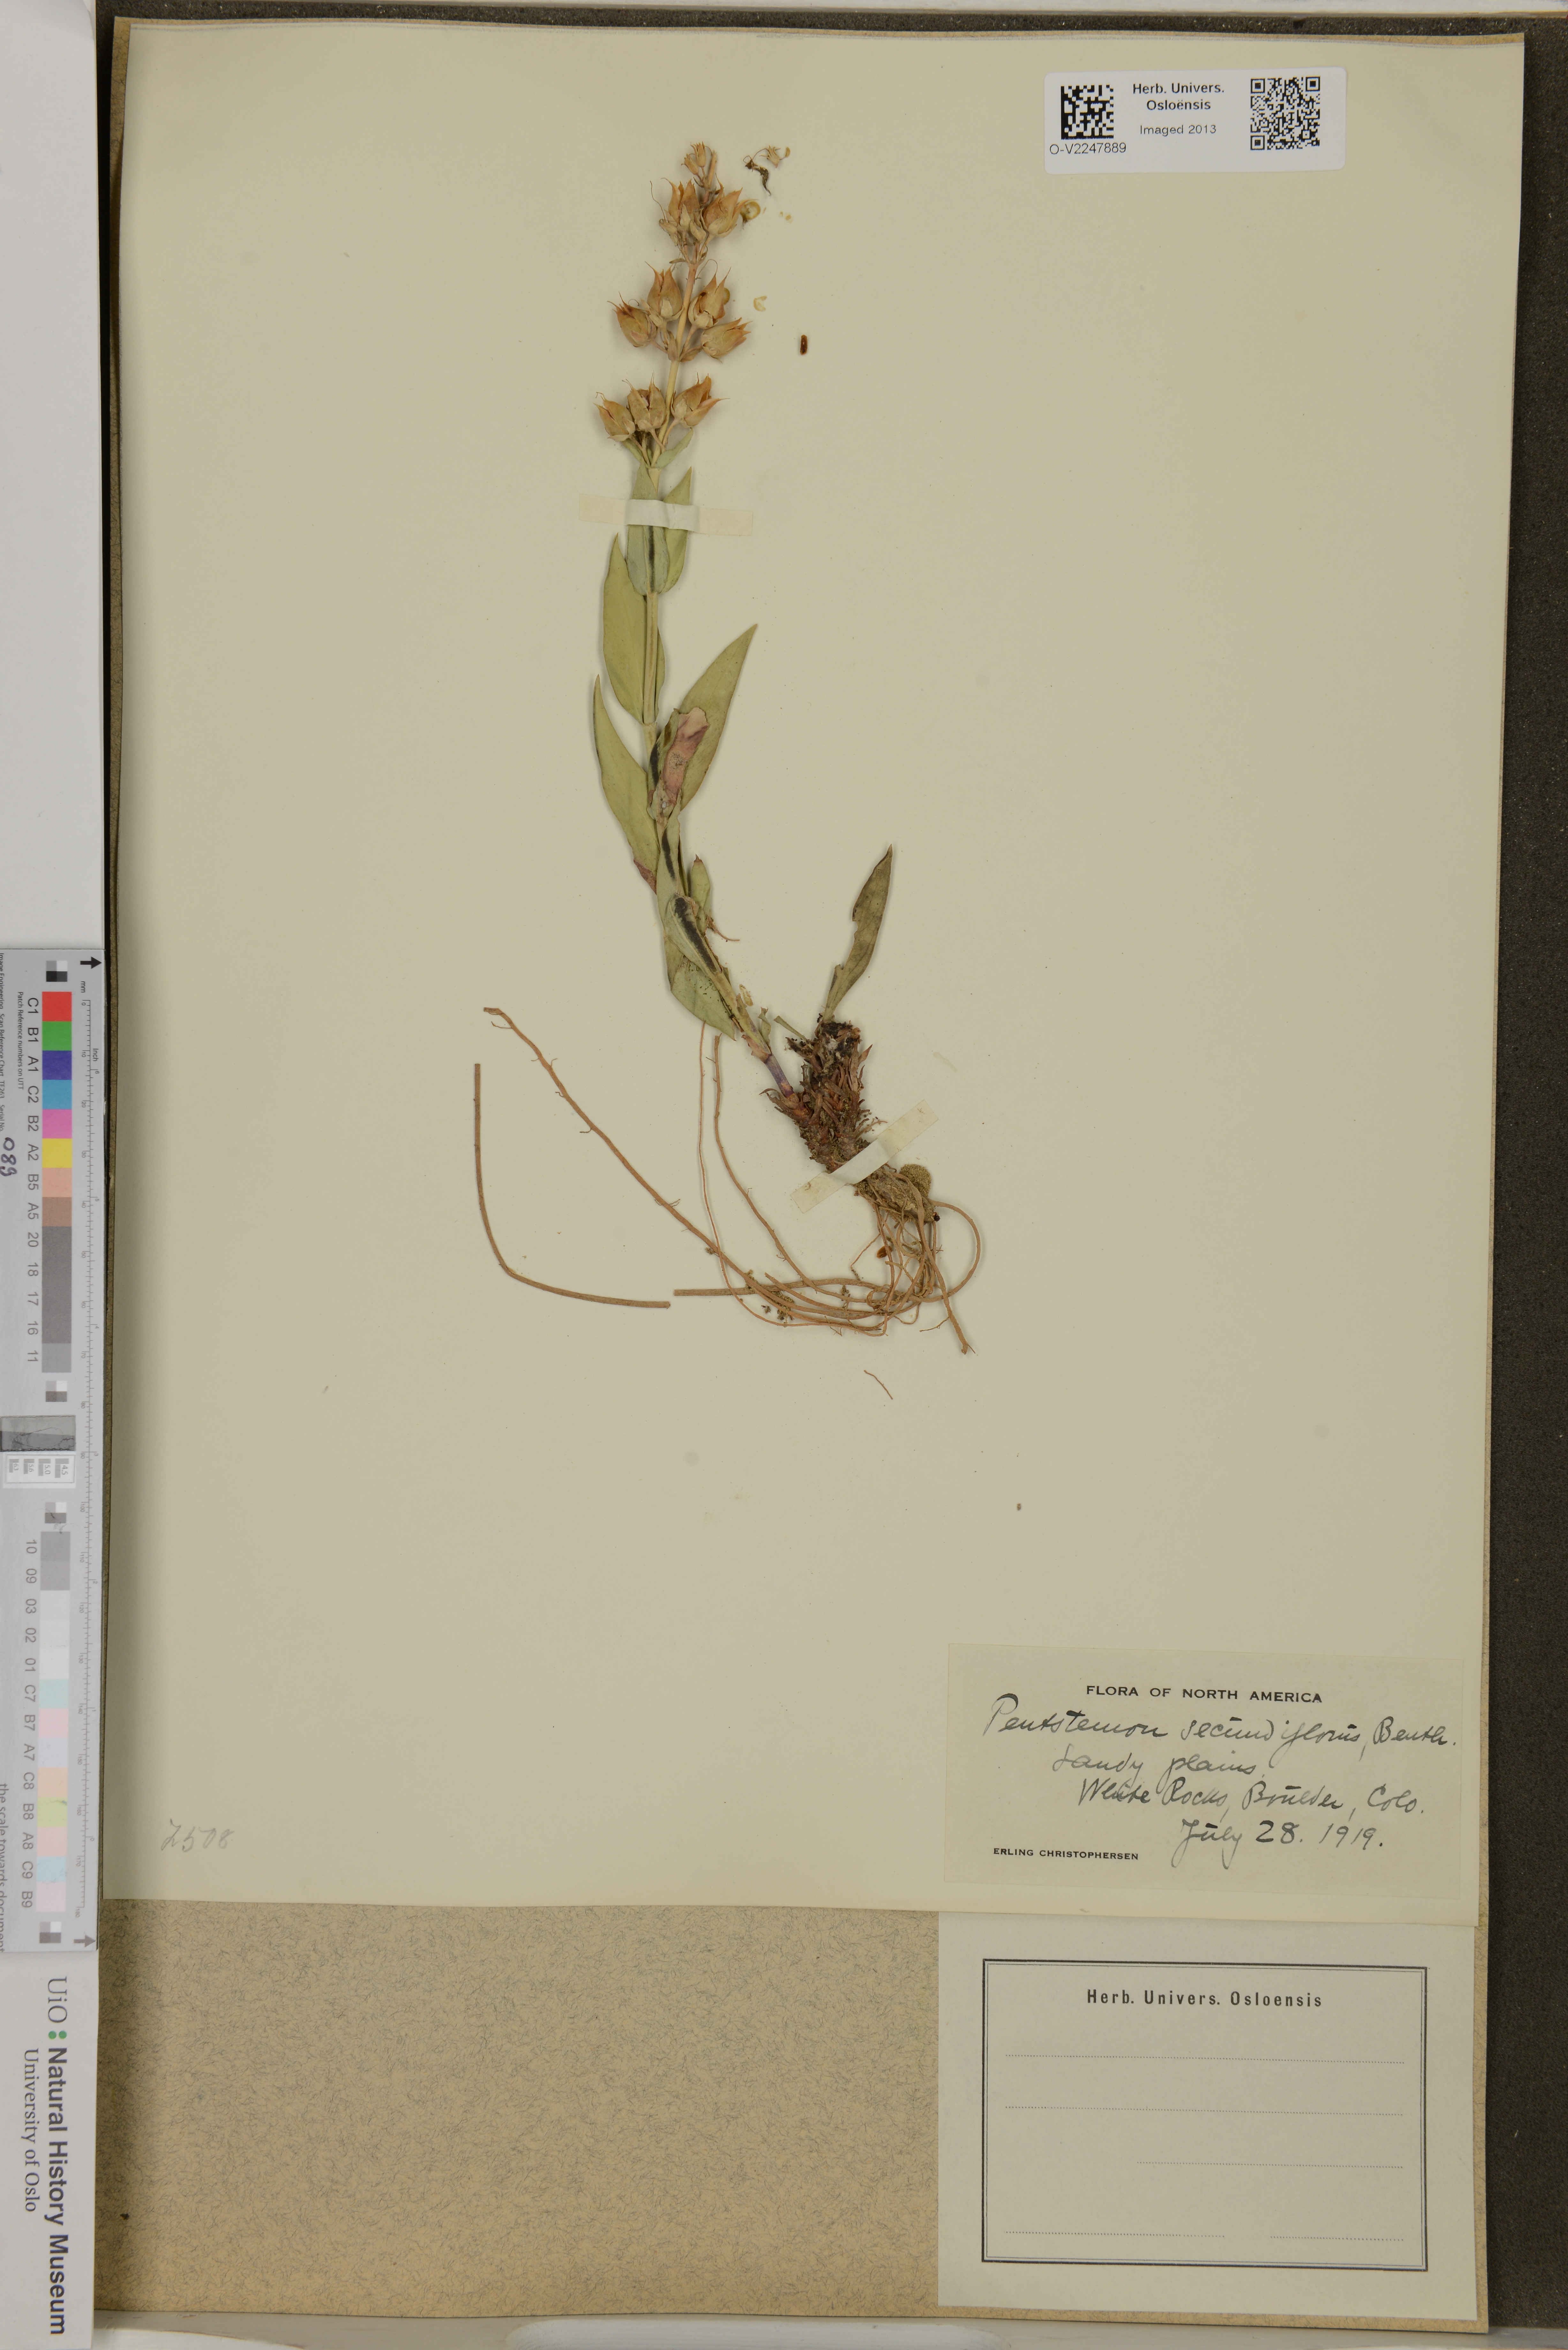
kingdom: Plantae
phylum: Tracheophyta
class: Magnoliopsida
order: Lamiales
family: Plantaginaceae
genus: Penstemon
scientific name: Penstemon secundiflorus
